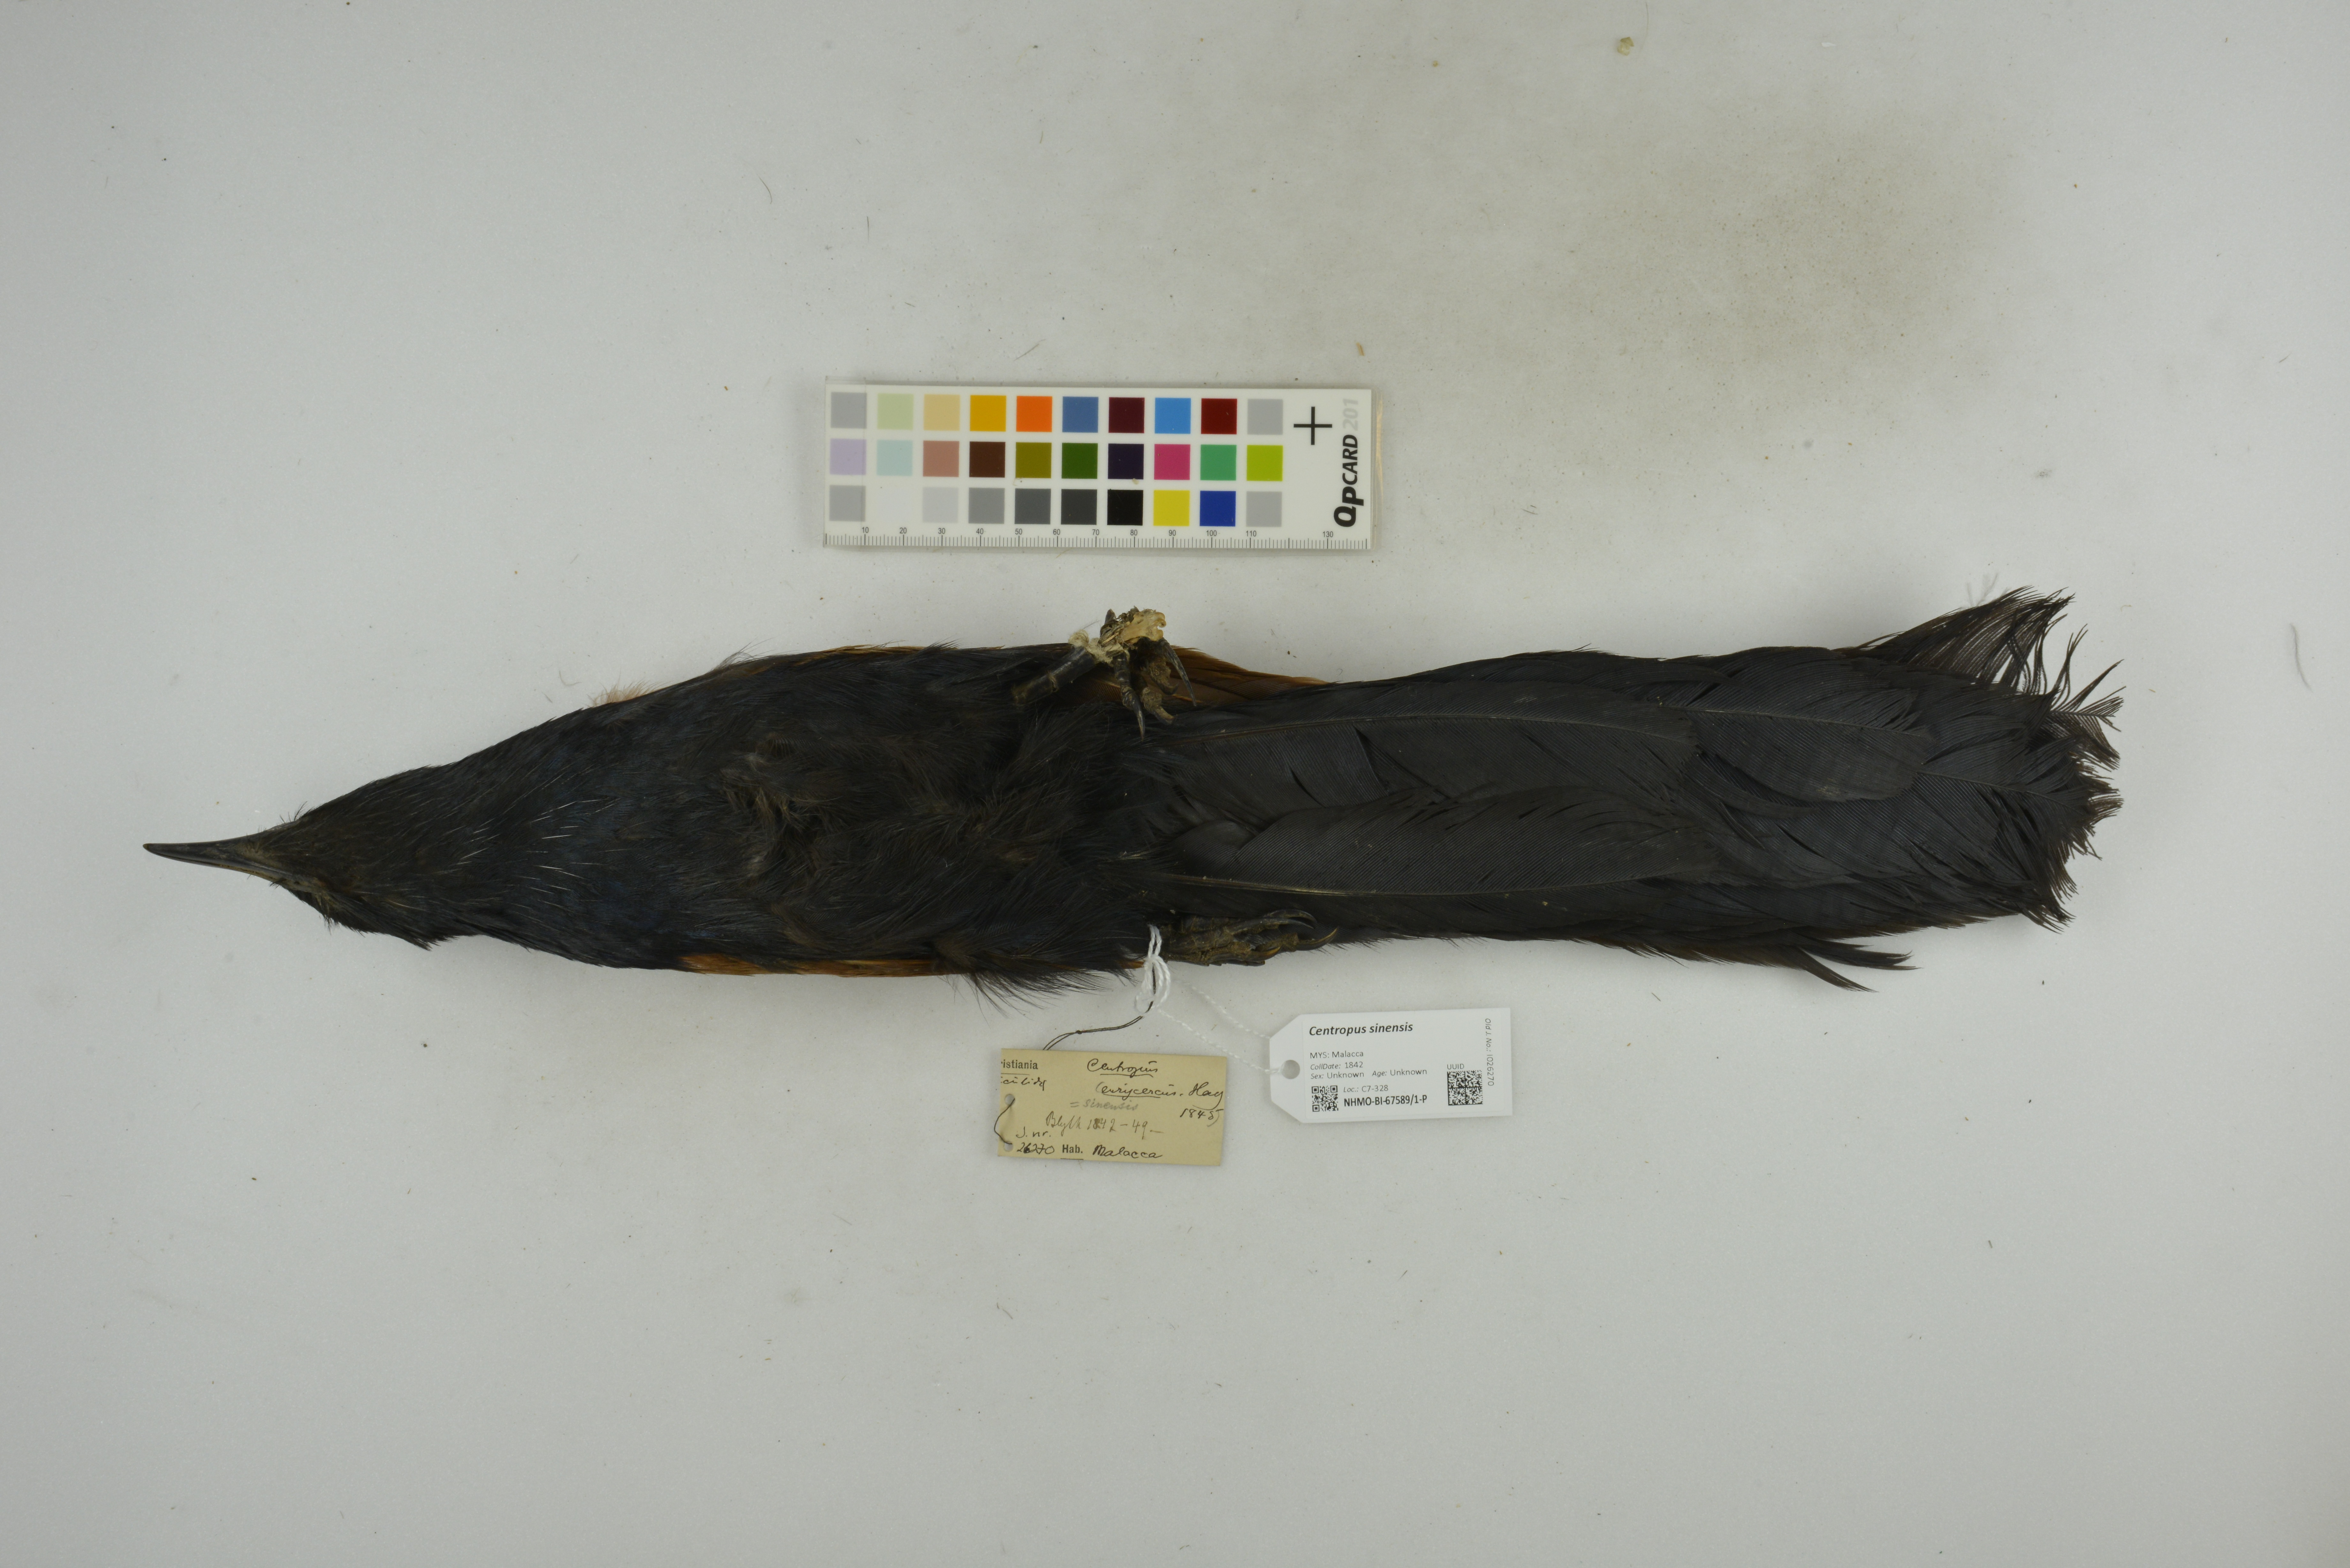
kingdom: Animalia
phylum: Chordata
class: Aves
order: Cuculiformes
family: Cuculidae
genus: Centropus
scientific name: Centropus sinensis
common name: Greater coucal
